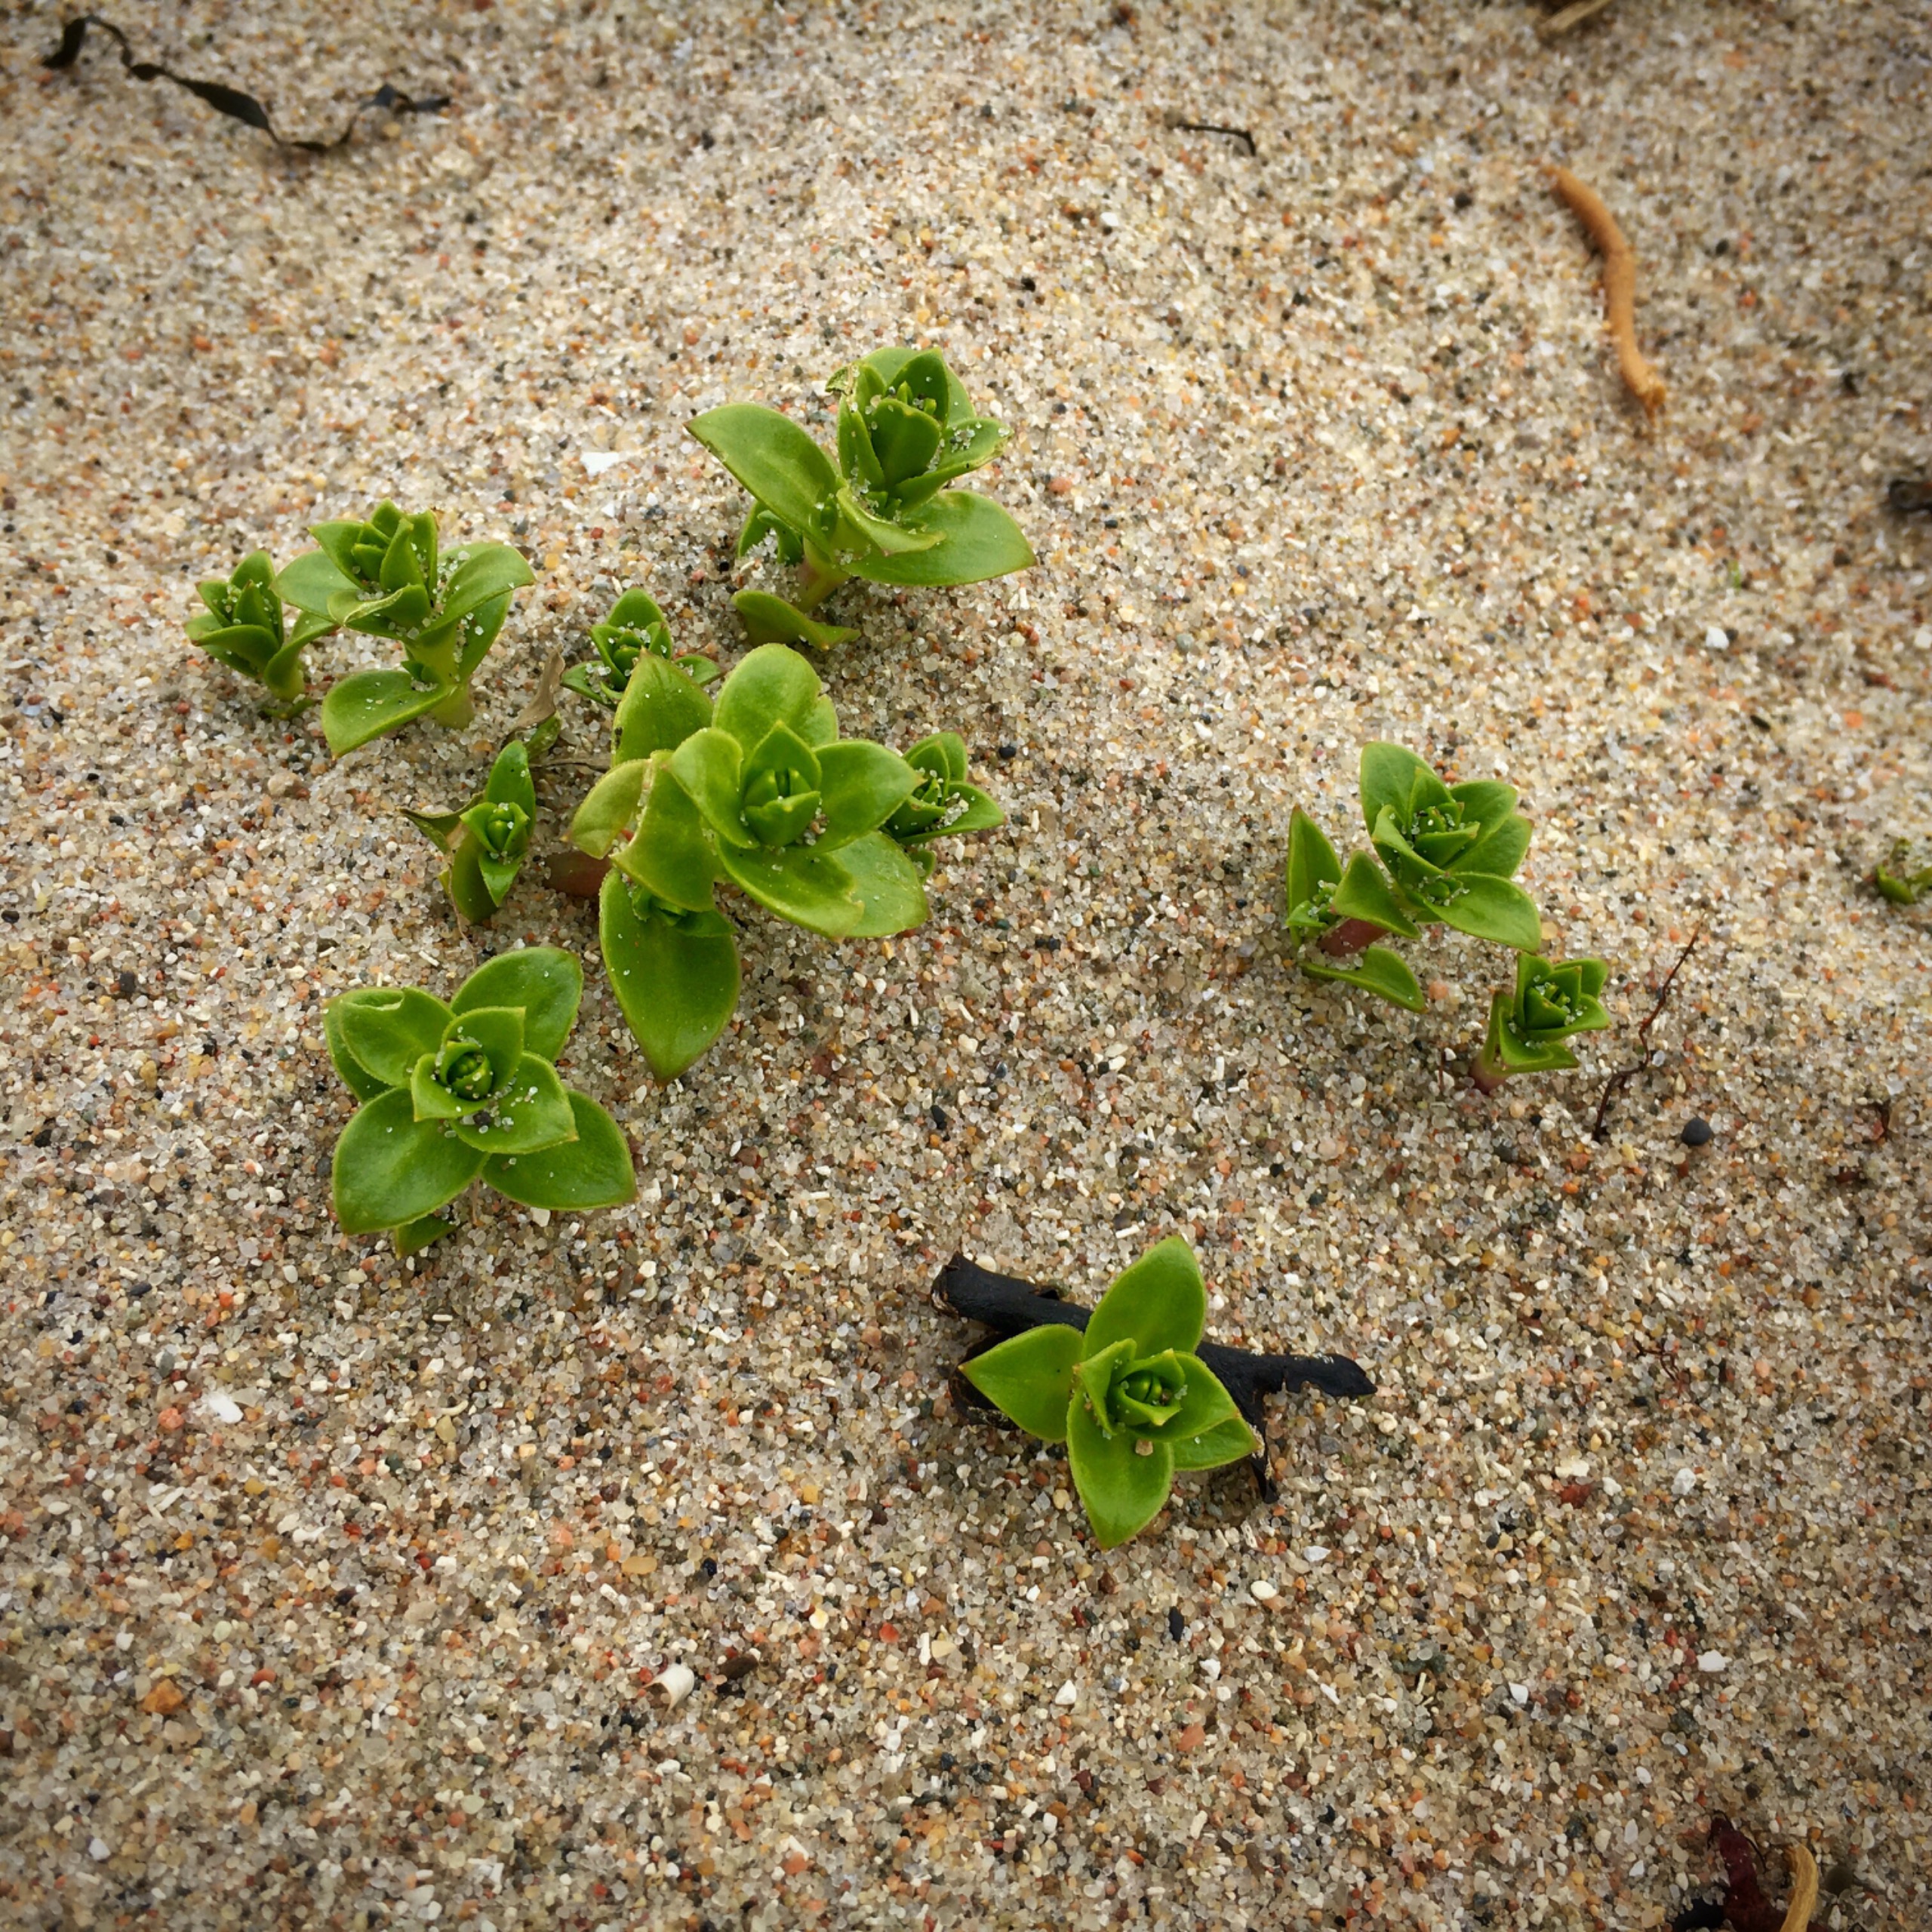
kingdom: Plantae
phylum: Tracheophyta
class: Magnoliopsida
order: Caryophyllales
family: Caryophyllaceae
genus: Honckenya
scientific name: Honckenya peploides
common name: Strandarve
